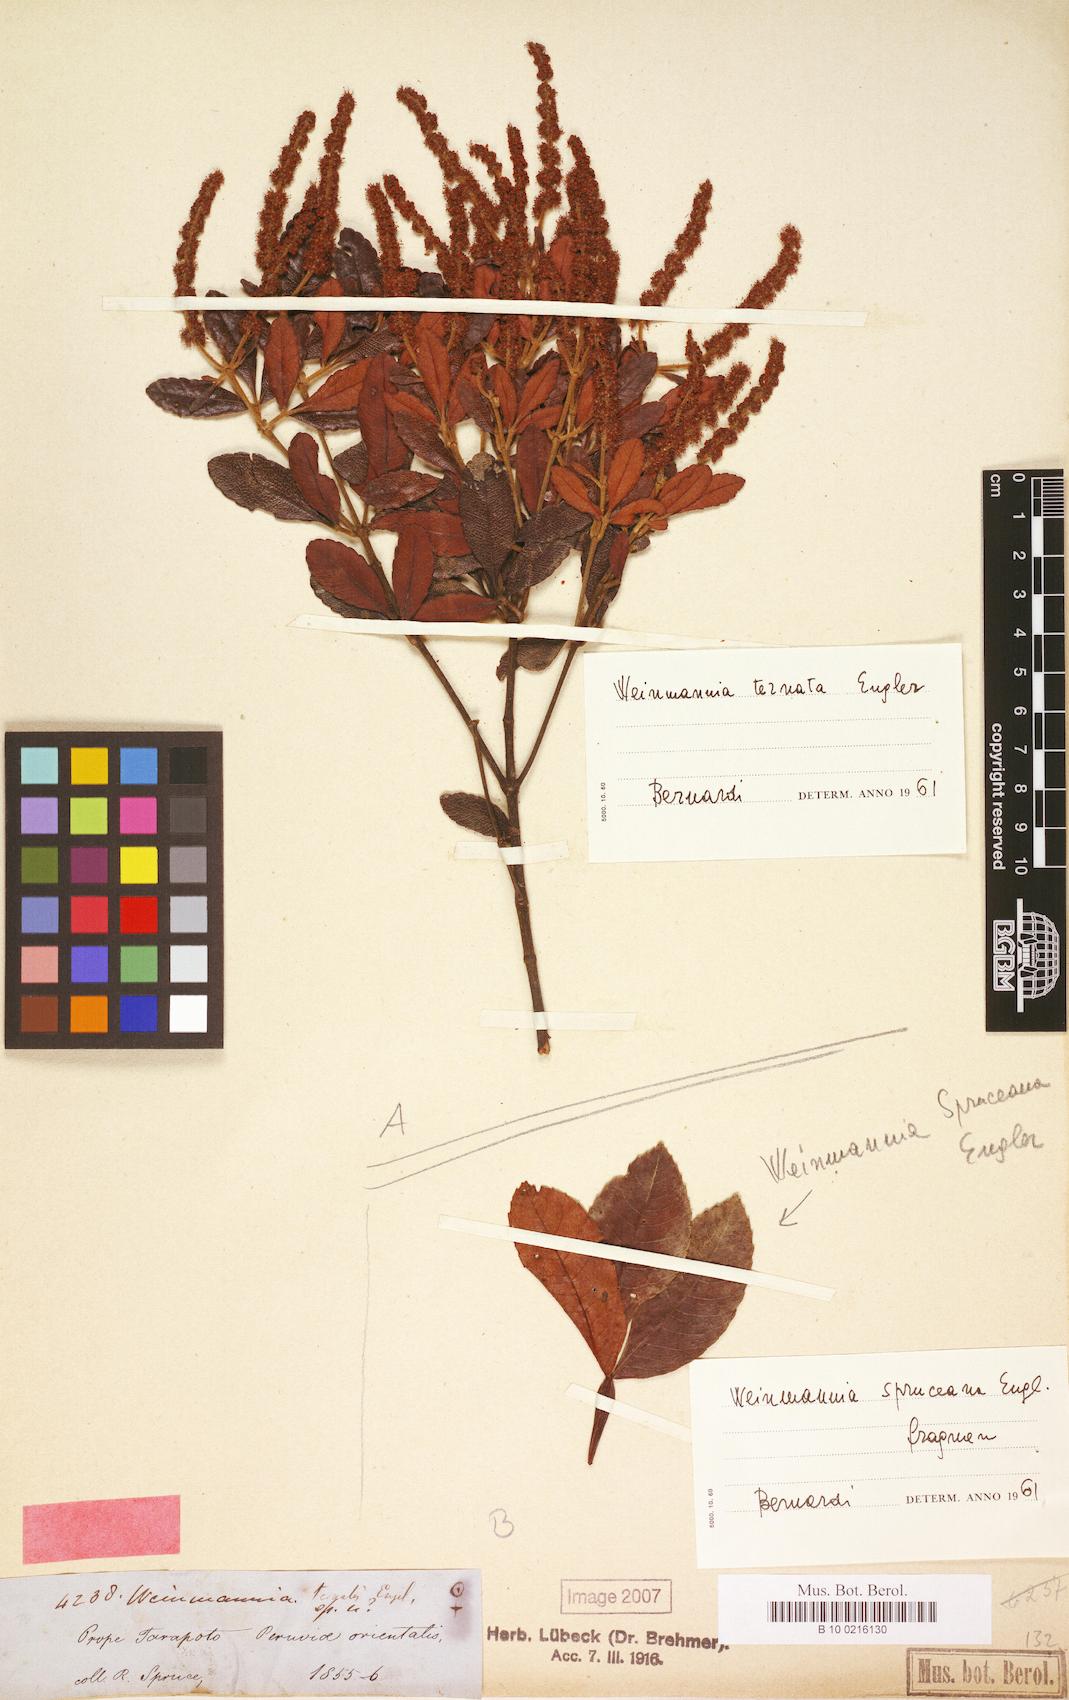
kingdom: Plantae
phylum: Tracheophyta
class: Magnoliopsida
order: Oxalidales
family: Cunoniaceae
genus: Weinmannia
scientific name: Weinmannia ternata
